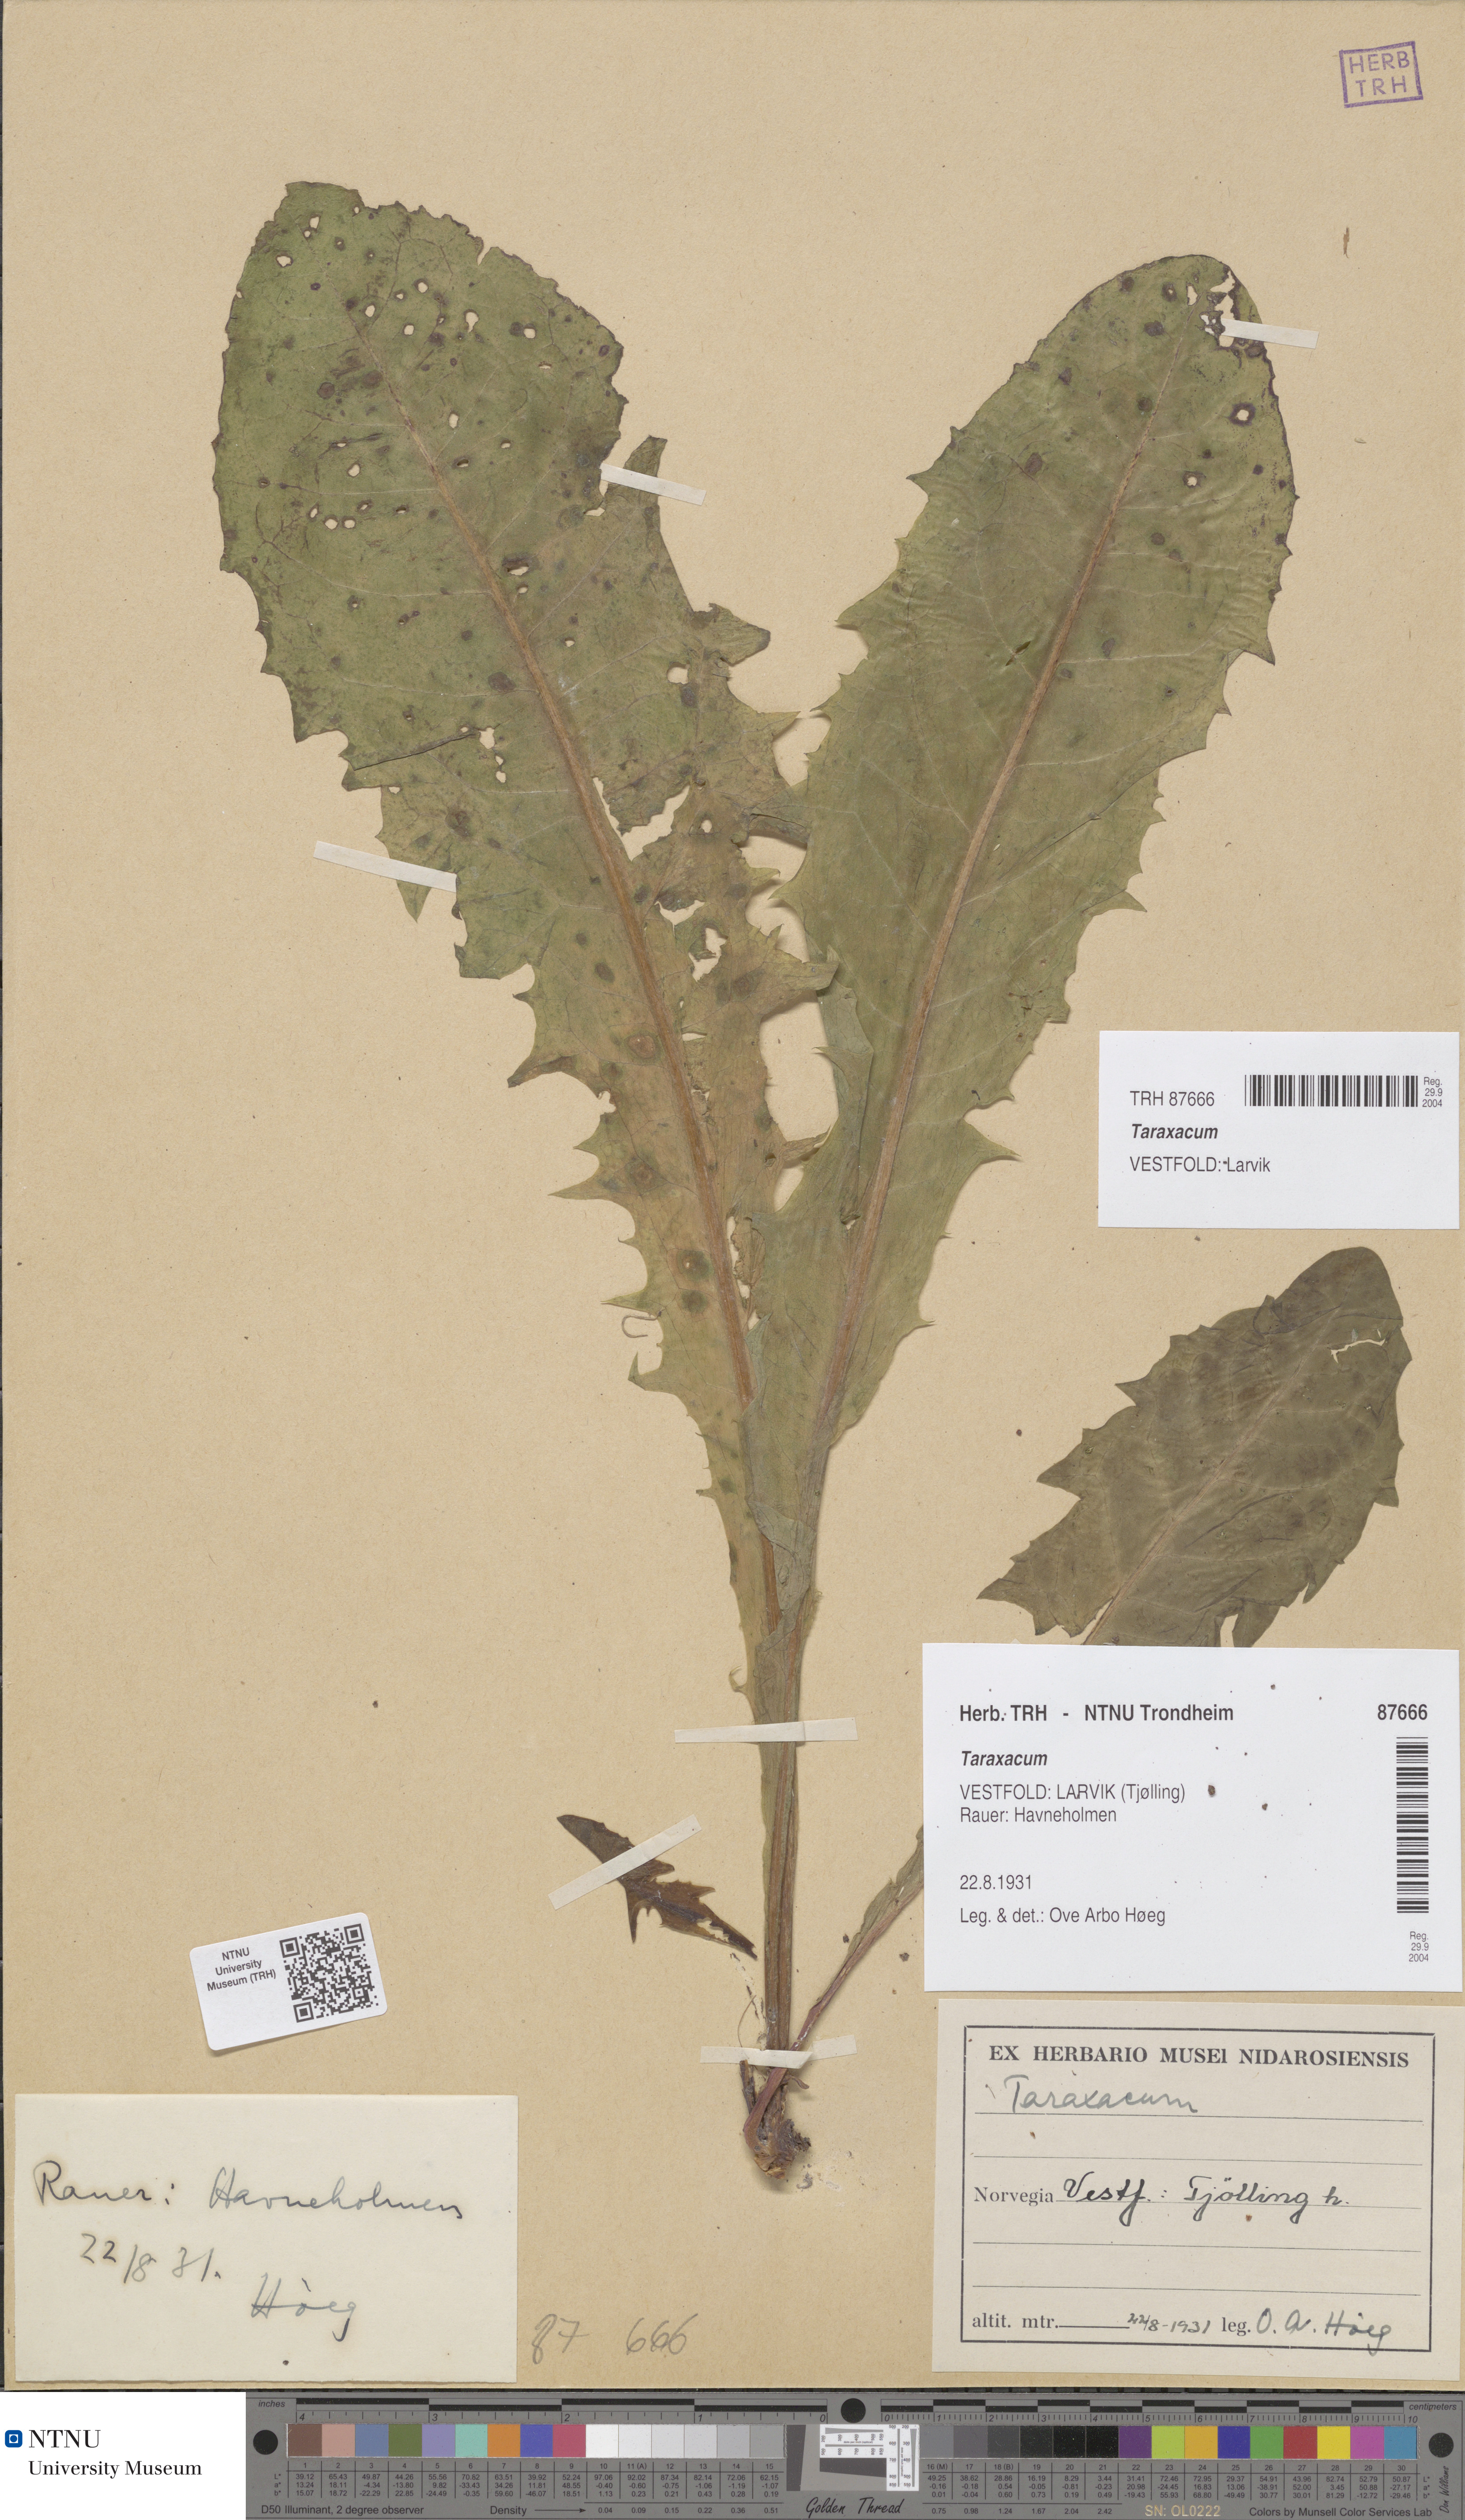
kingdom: Plantae
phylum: Tracheophyta
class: Magnoliopsida
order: Asterales
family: Asteraceae
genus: Taraxacum
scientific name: Taraxacum
